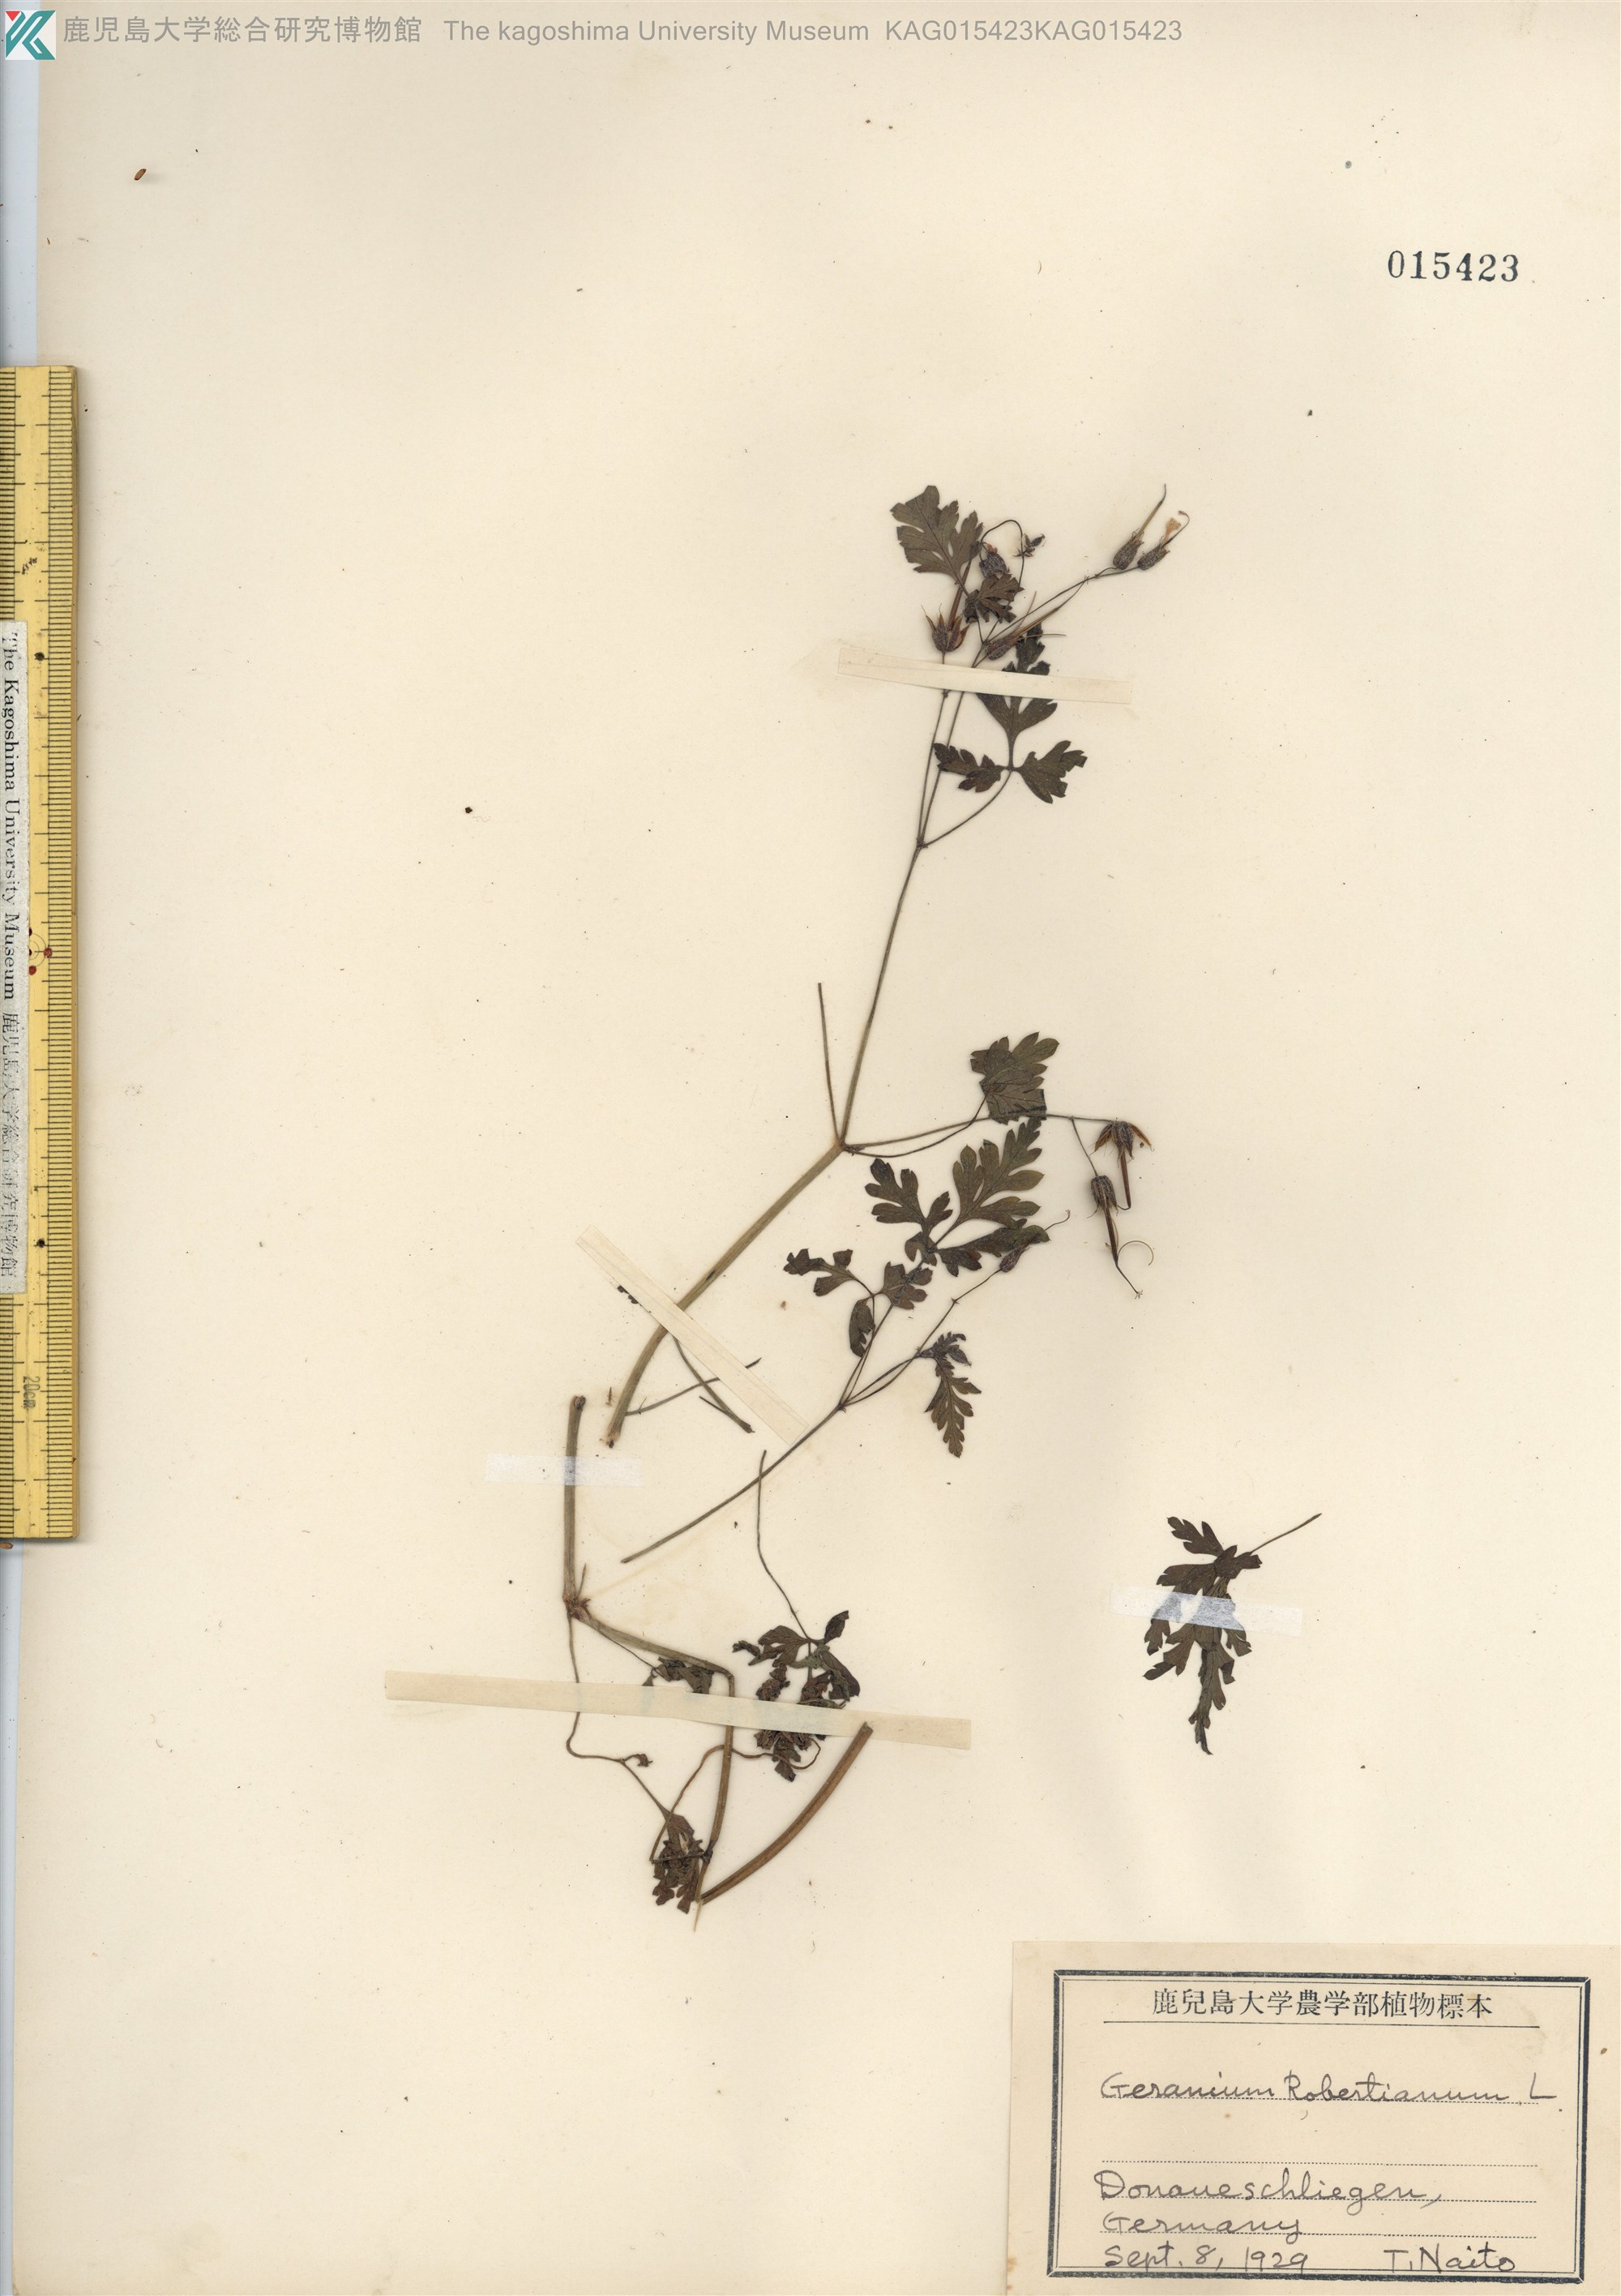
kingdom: Plantae
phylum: Tracheophyta
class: Magnoliopsida
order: Geraniales
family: Geraniaceae
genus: Geranium
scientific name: Geranium robertianum
